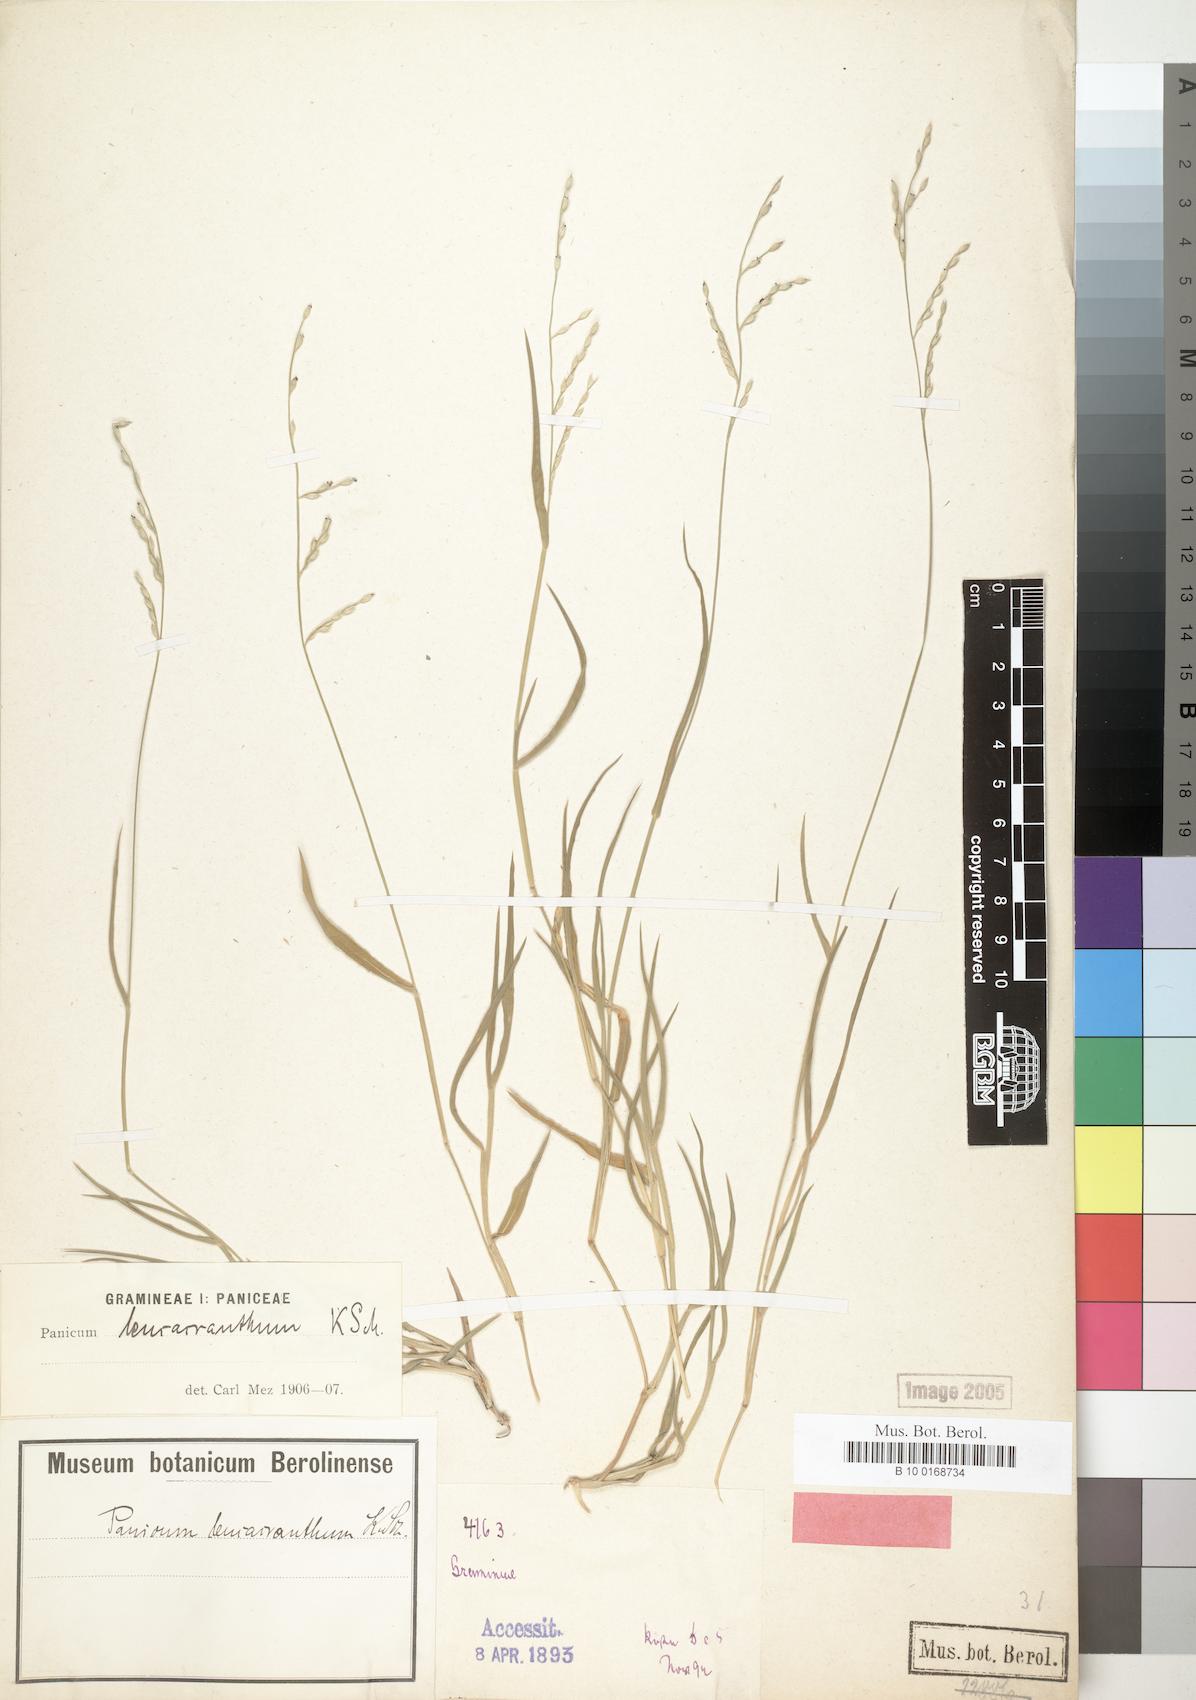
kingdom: Plantae
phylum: Tracheophyta
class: Liliopsida
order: Poales
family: Poaceae
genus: Urochloa
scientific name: Urochloa xantholeuca
